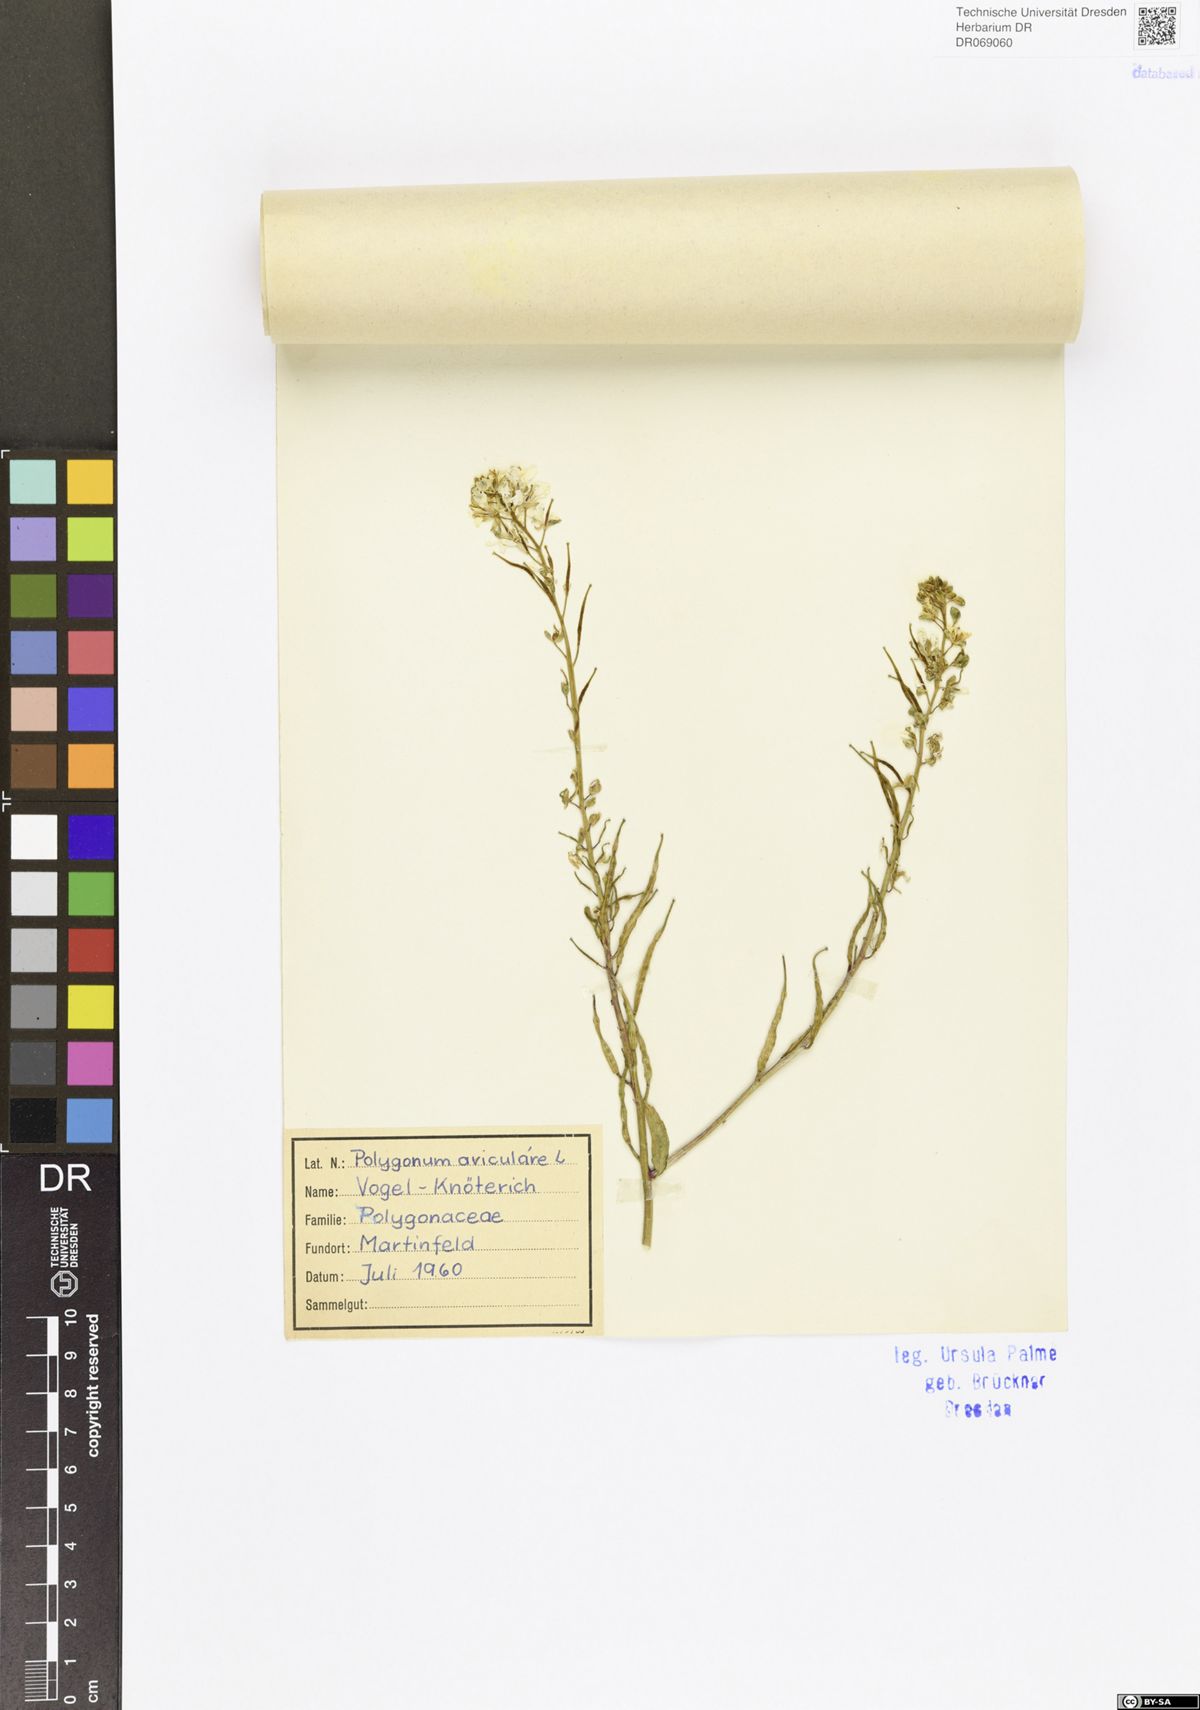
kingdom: Plantae
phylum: Tracheophyta
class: Magnoliopsida
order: Caryophyllales
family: Polygonaceae
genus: Polygonum
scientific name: Polygonum aviculare
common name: Prostrate knotweed
